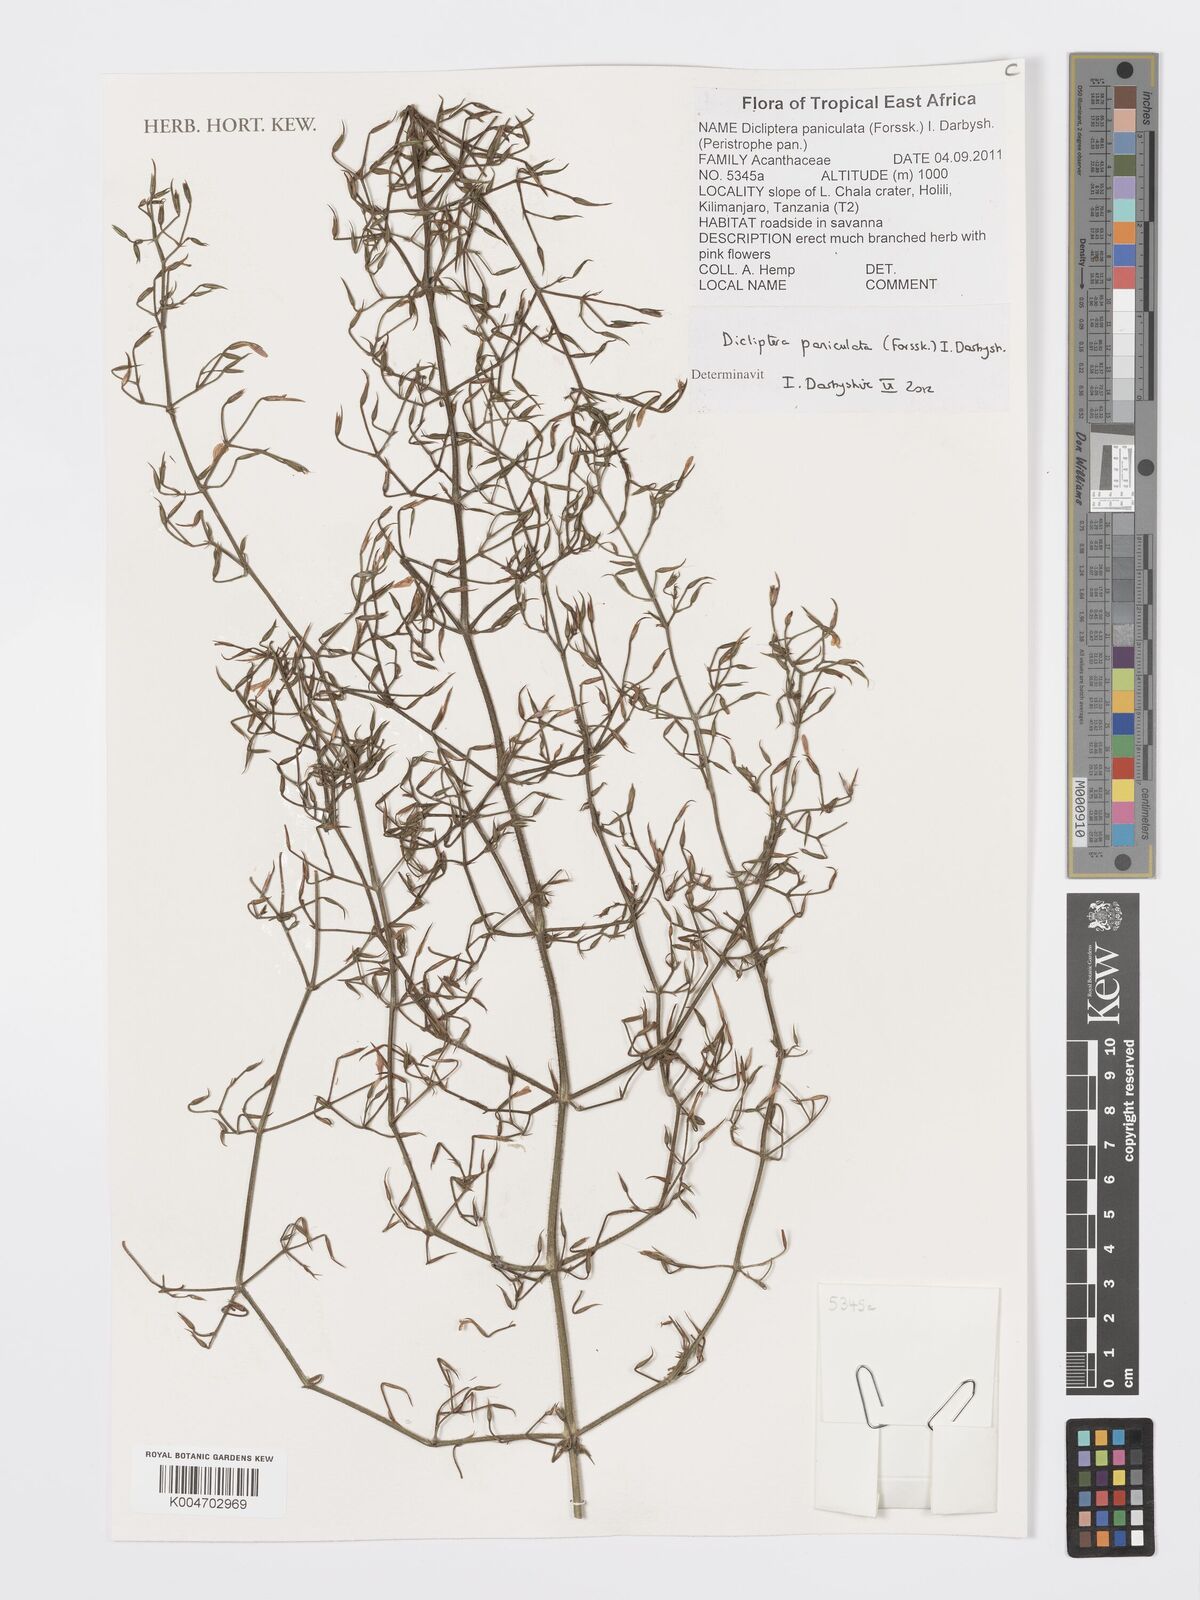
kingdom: Plantae
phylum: Tracheophyta
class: Magnoliopsida
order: Lamiales
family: Acanthaceae
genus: Dicliptera
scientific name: Dicliptera paniculata
